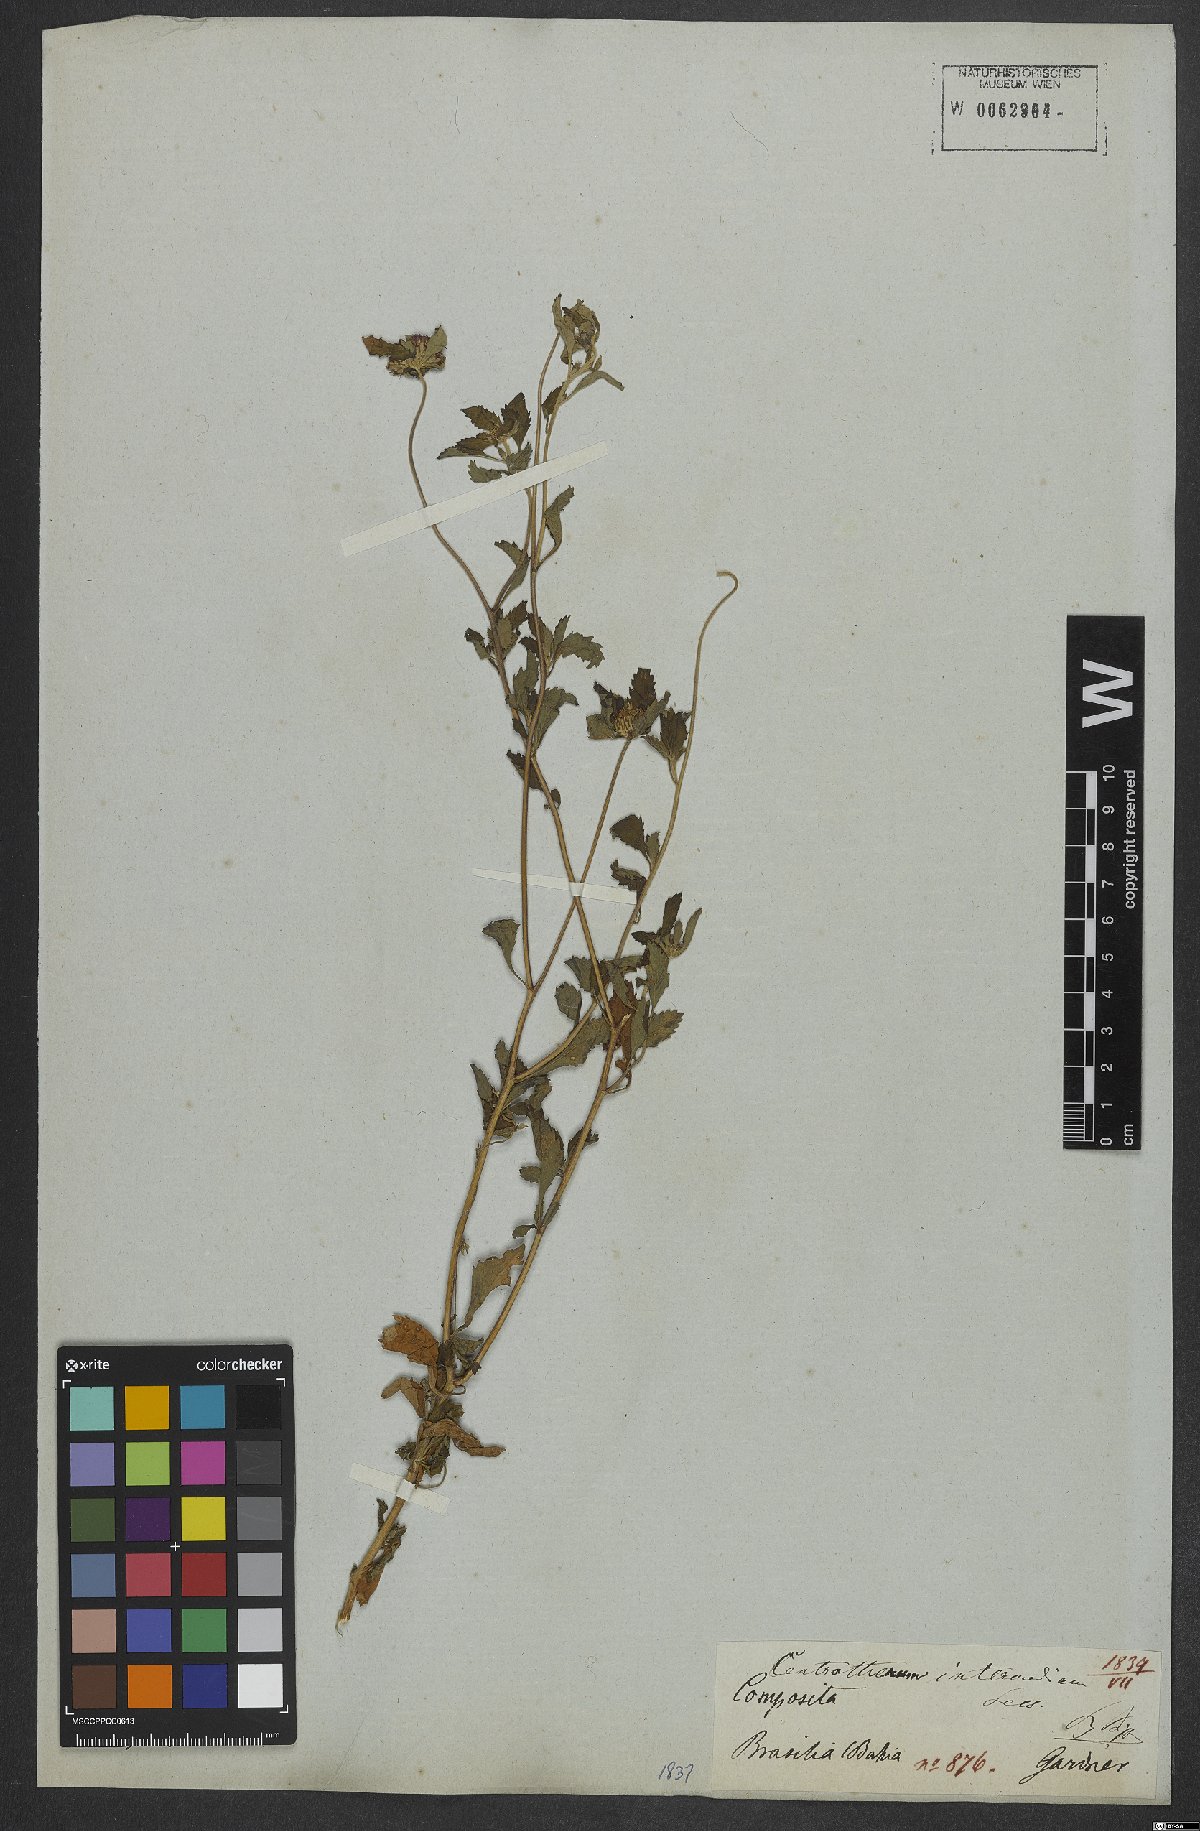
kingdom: Plantae
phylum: Tracheophyta
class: Magnoliopsida
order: Asterales
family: Asteraceae
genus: Centratherum
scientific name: Centratherum punctatum
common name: Larkdaisy
